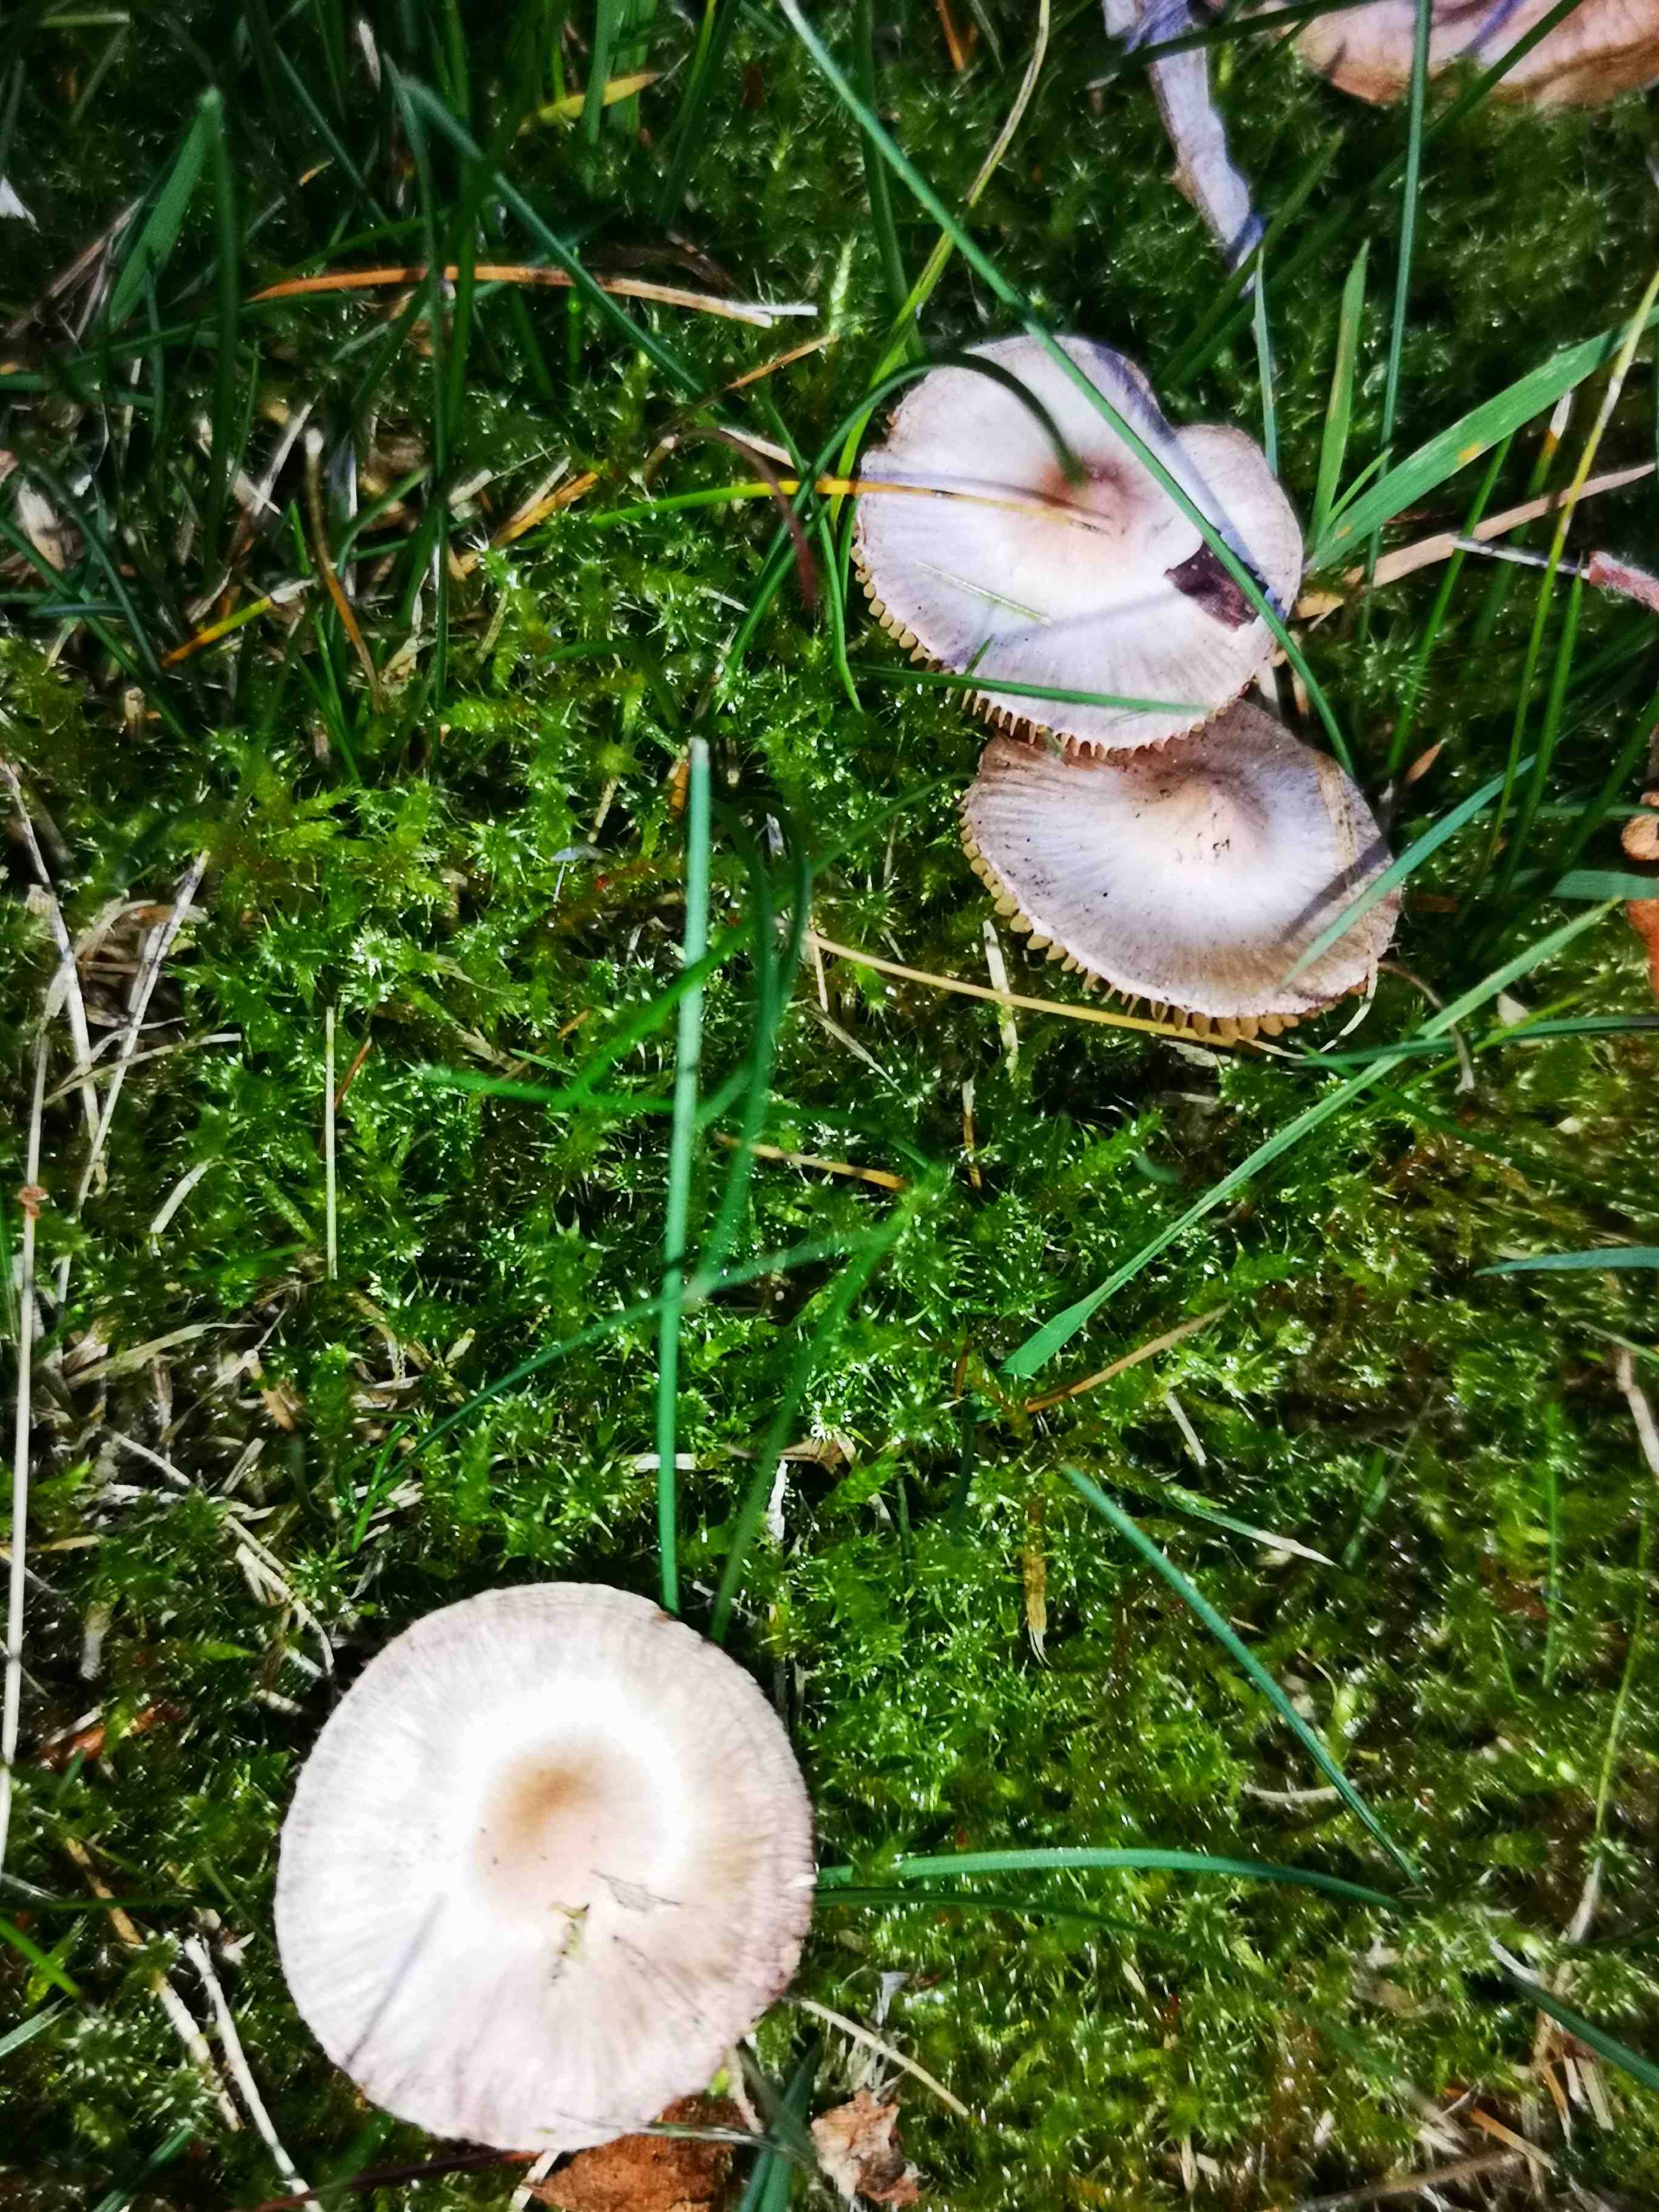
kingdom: Fungi
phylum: Basidiomycota
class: Agaricomycetes
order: Agaricales
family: Inocybaceae
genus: Inocybe
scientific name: Inocybe geophylla
